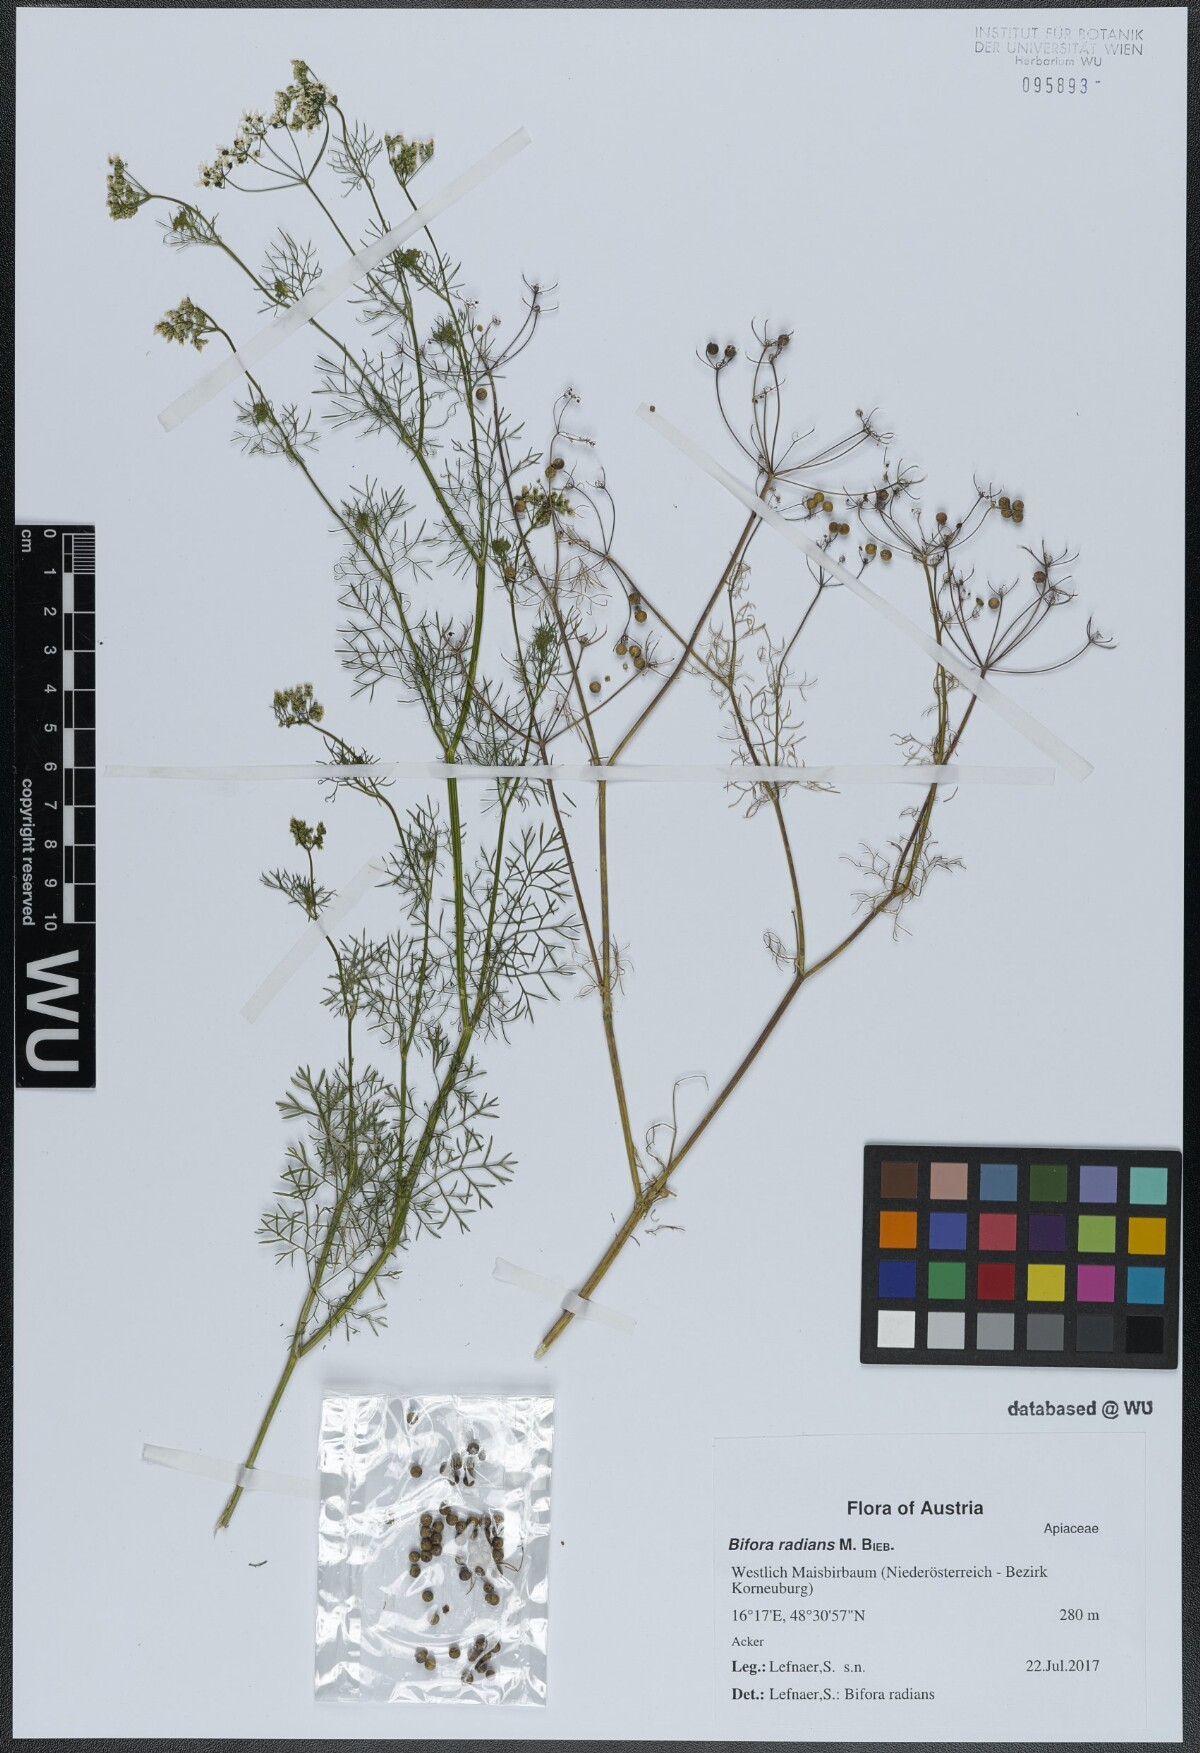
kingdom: Plantae
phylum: Tracheophyta
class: Magnoliopsida
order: Apiales
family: Apiaceae
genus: Bifora
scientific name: Bifora radians
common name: Wild bishop
